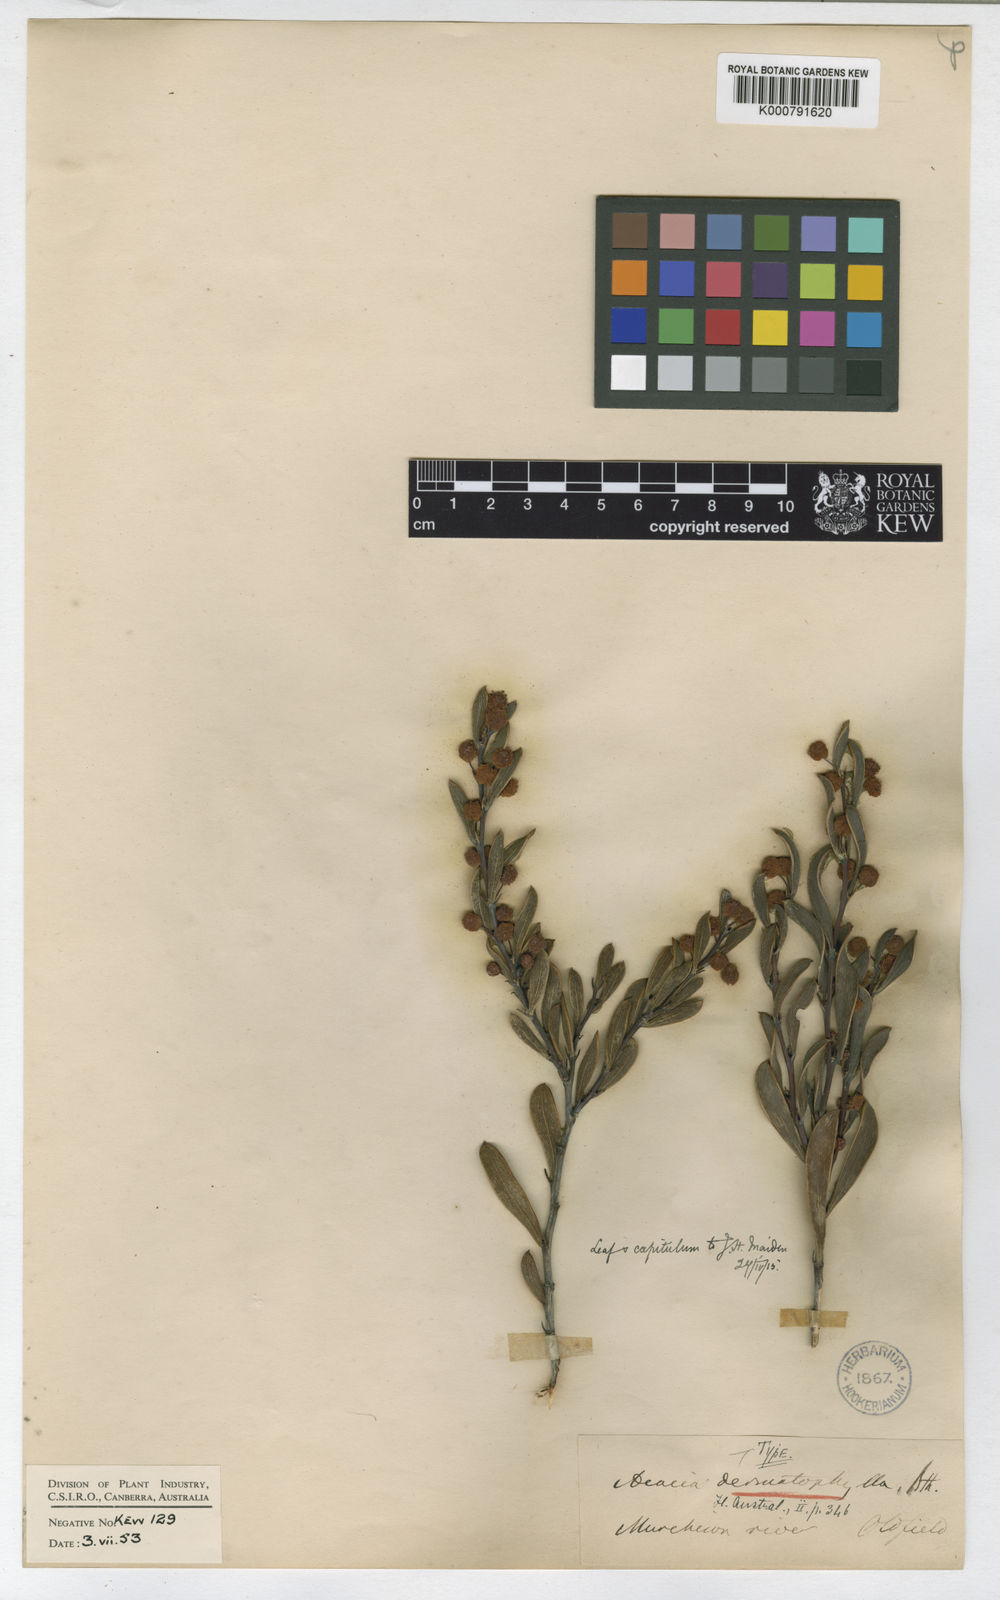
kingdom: Plantae
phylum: Tracheophyta
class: Magnoliopsida
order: Fabales
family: Fabaceae
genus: Acacia
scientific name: Acacia dermatophylla
